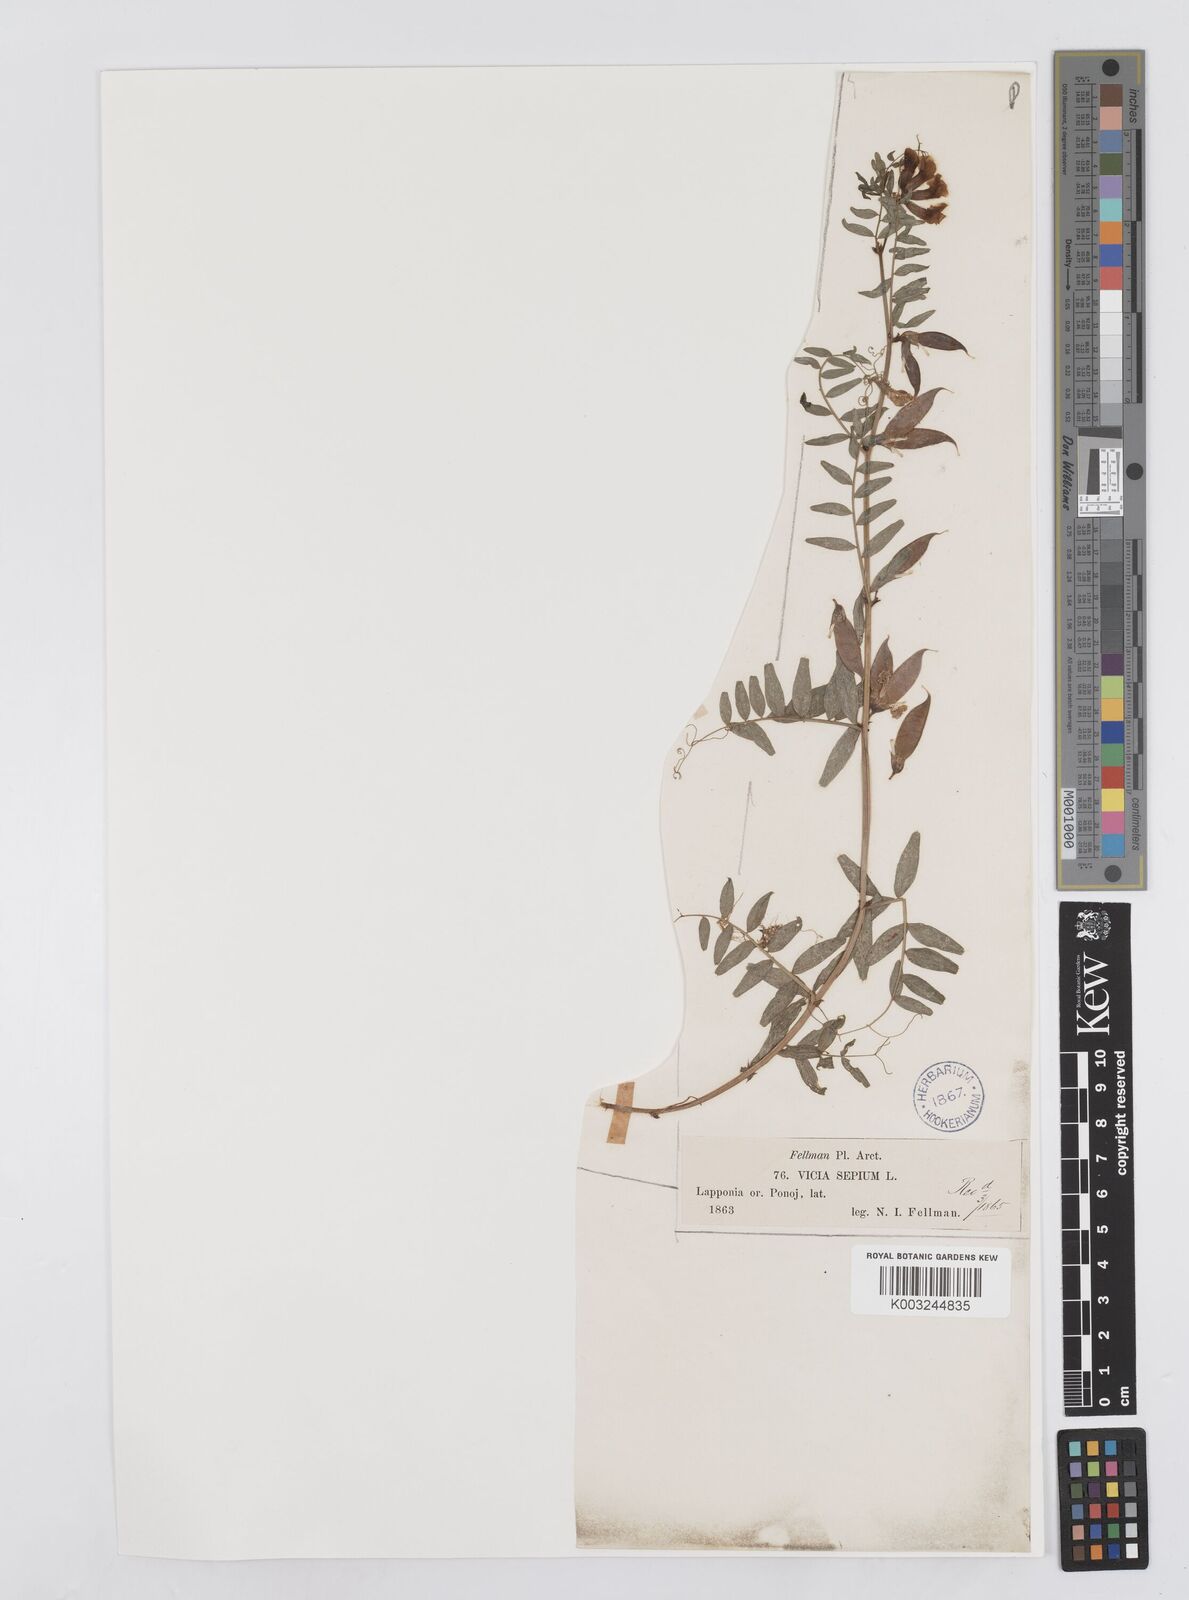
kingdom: Plantae
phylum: Tracheophyta
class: Magnoliopsida
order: Fabales
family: Fabaceae
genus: Vicia
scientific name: Vicia sepium
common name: Bush vetch
